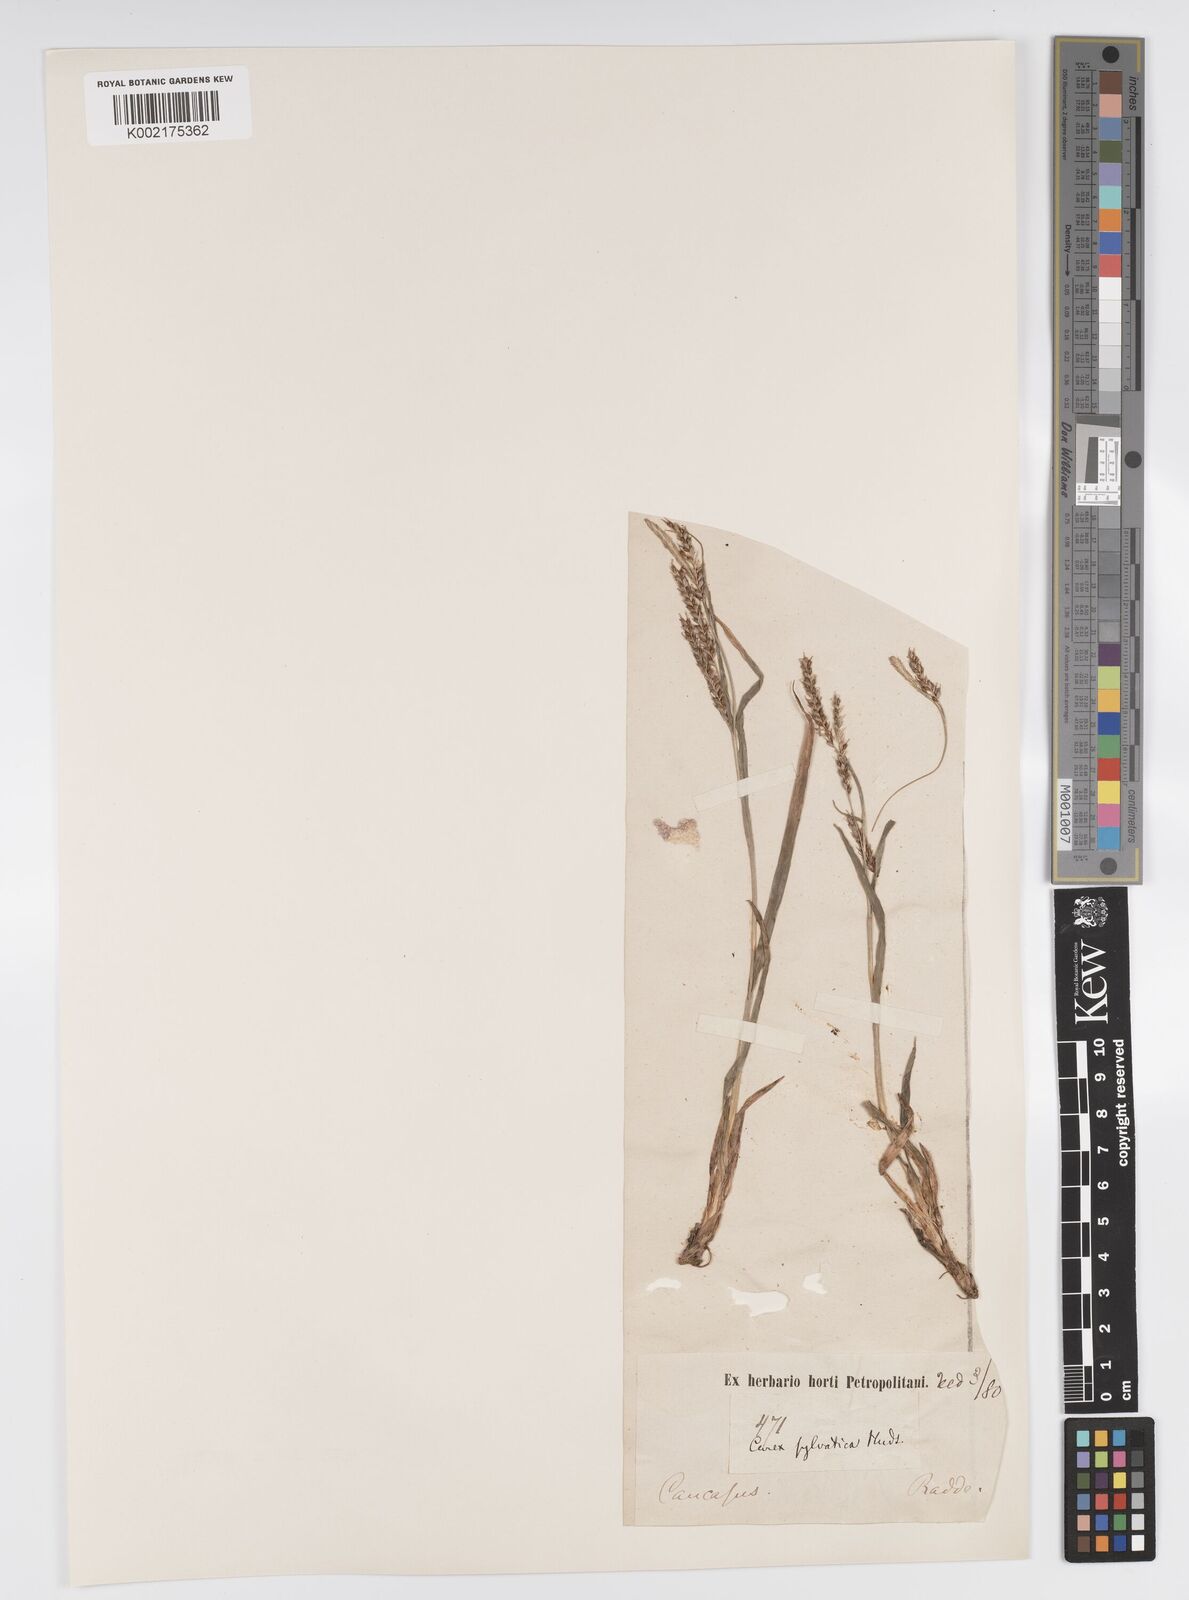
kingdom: Plantae
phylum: Tracheophyta
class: Liliopsida
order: Poales
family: Cyperaceae
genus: Carex
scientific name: Carex sylvatica
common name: Wood-sedge
